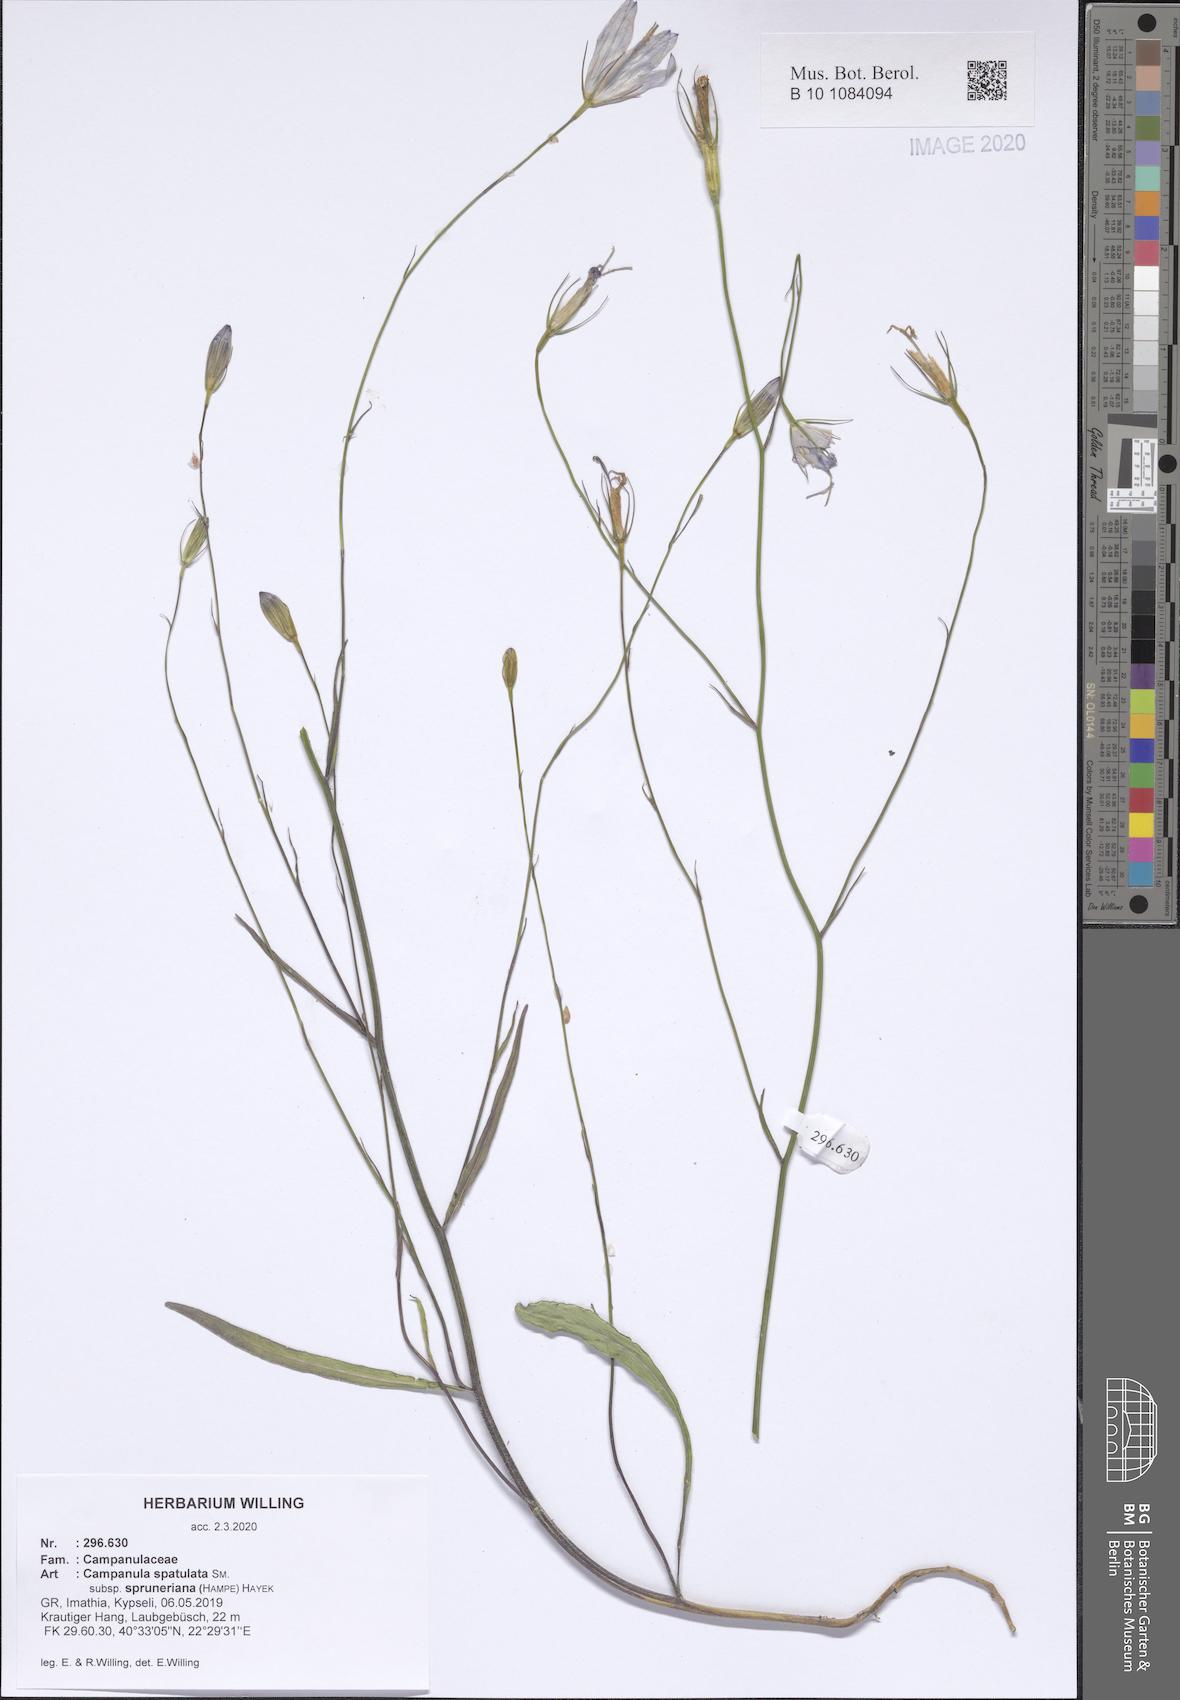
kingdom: Plantae
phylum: Tracheophyta
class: Magnoliopsida
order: Asterales
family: Campanulaceae
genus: Campanula
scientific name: Campanula spatulata
